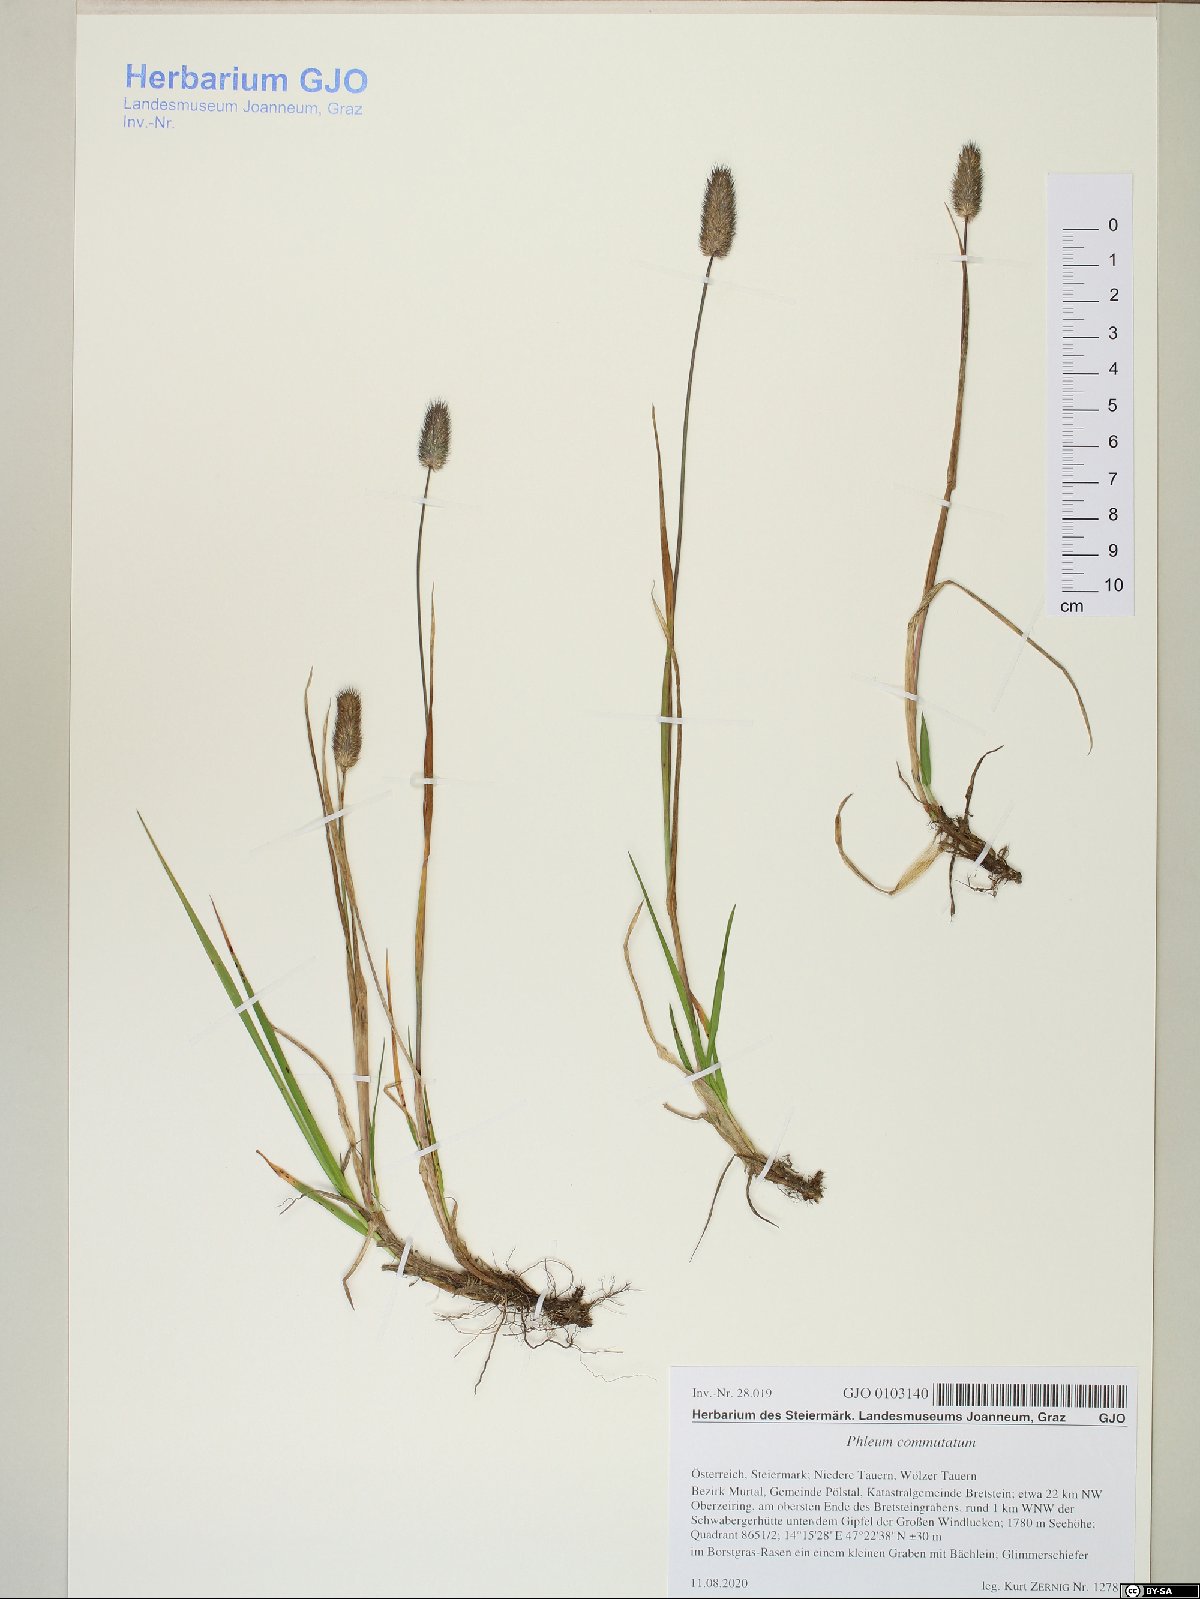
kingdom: Plantae
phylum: Tracheophyta
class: Liliopsida
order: Poales
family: Poaceae
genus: Phleum
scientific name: Phleum alpinum
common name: Alpine cat's-tail
